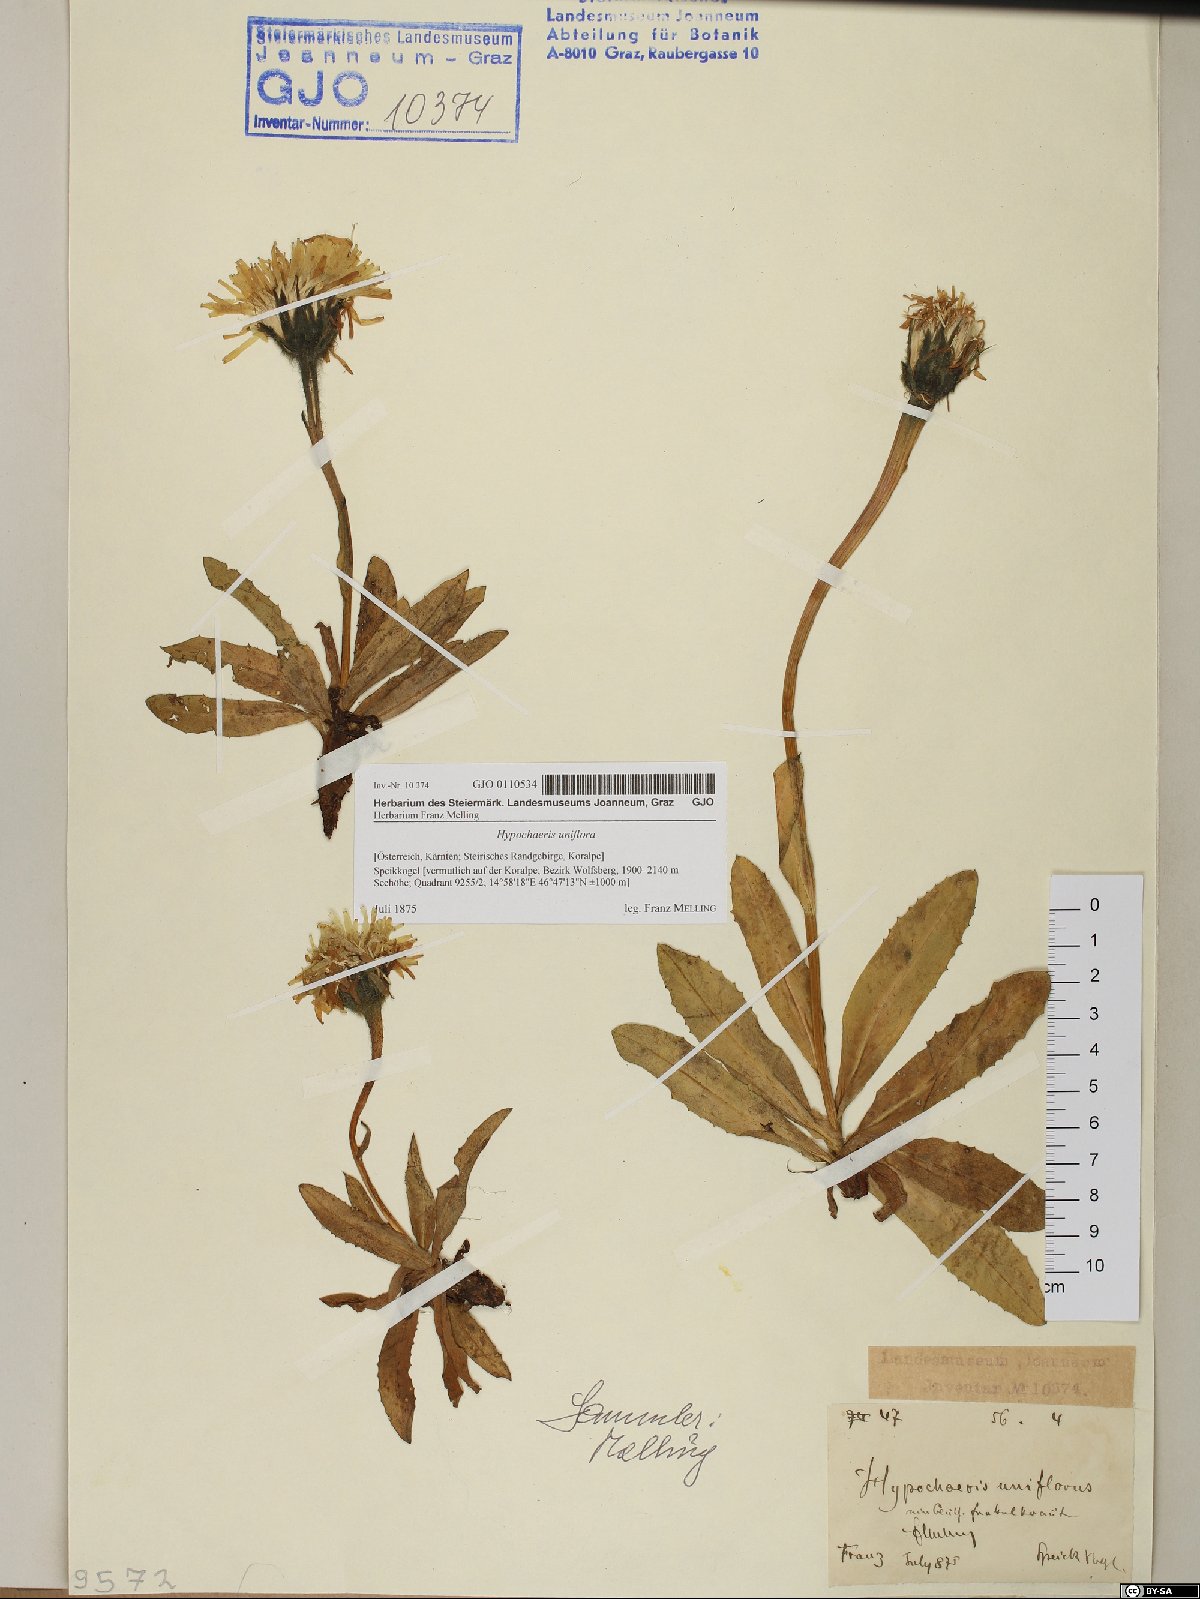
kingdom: Plantae
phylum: Tracheophyta
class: Magnoliopsida
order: Asterales
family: Asteraceae
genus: Trommsdorffia
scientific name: Trommsdorffia uniflora
